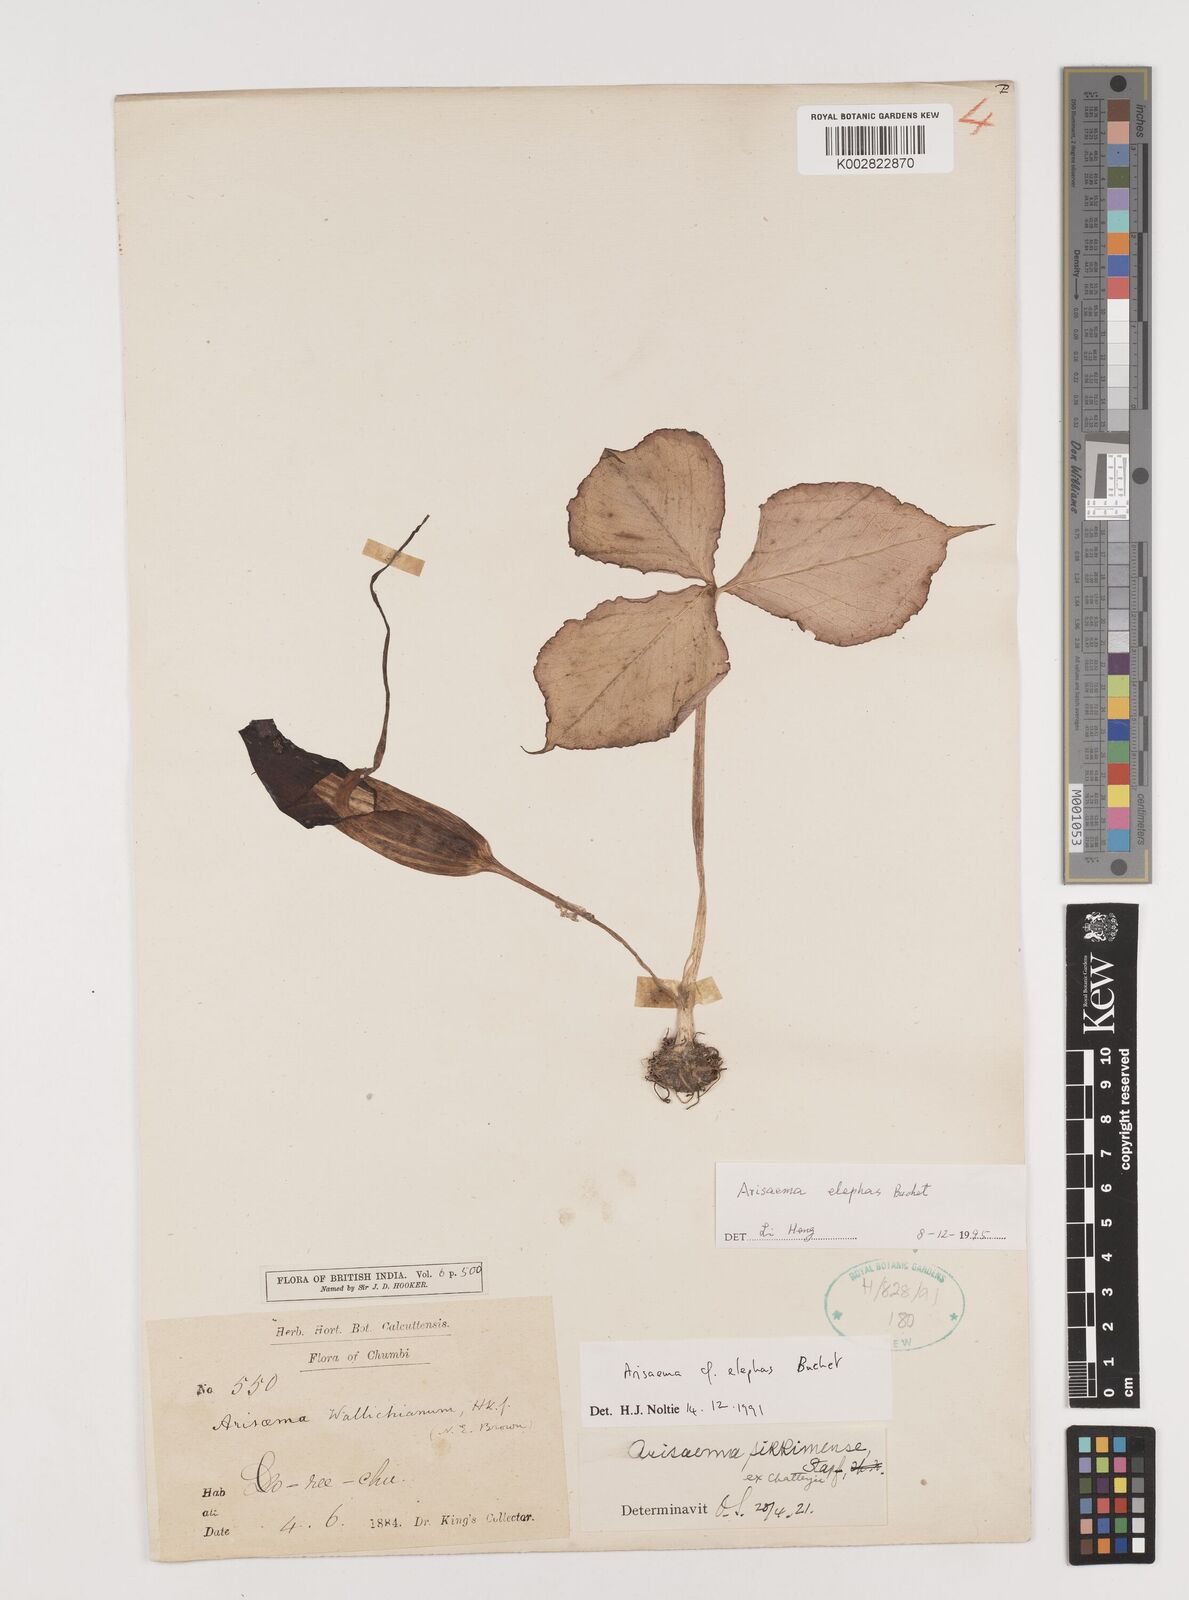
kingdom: Plantae
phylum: Tracheophyta
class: Liliopsida
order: Alismatales
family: Araceae
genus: Arisaema
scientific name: Arisaema elephas
